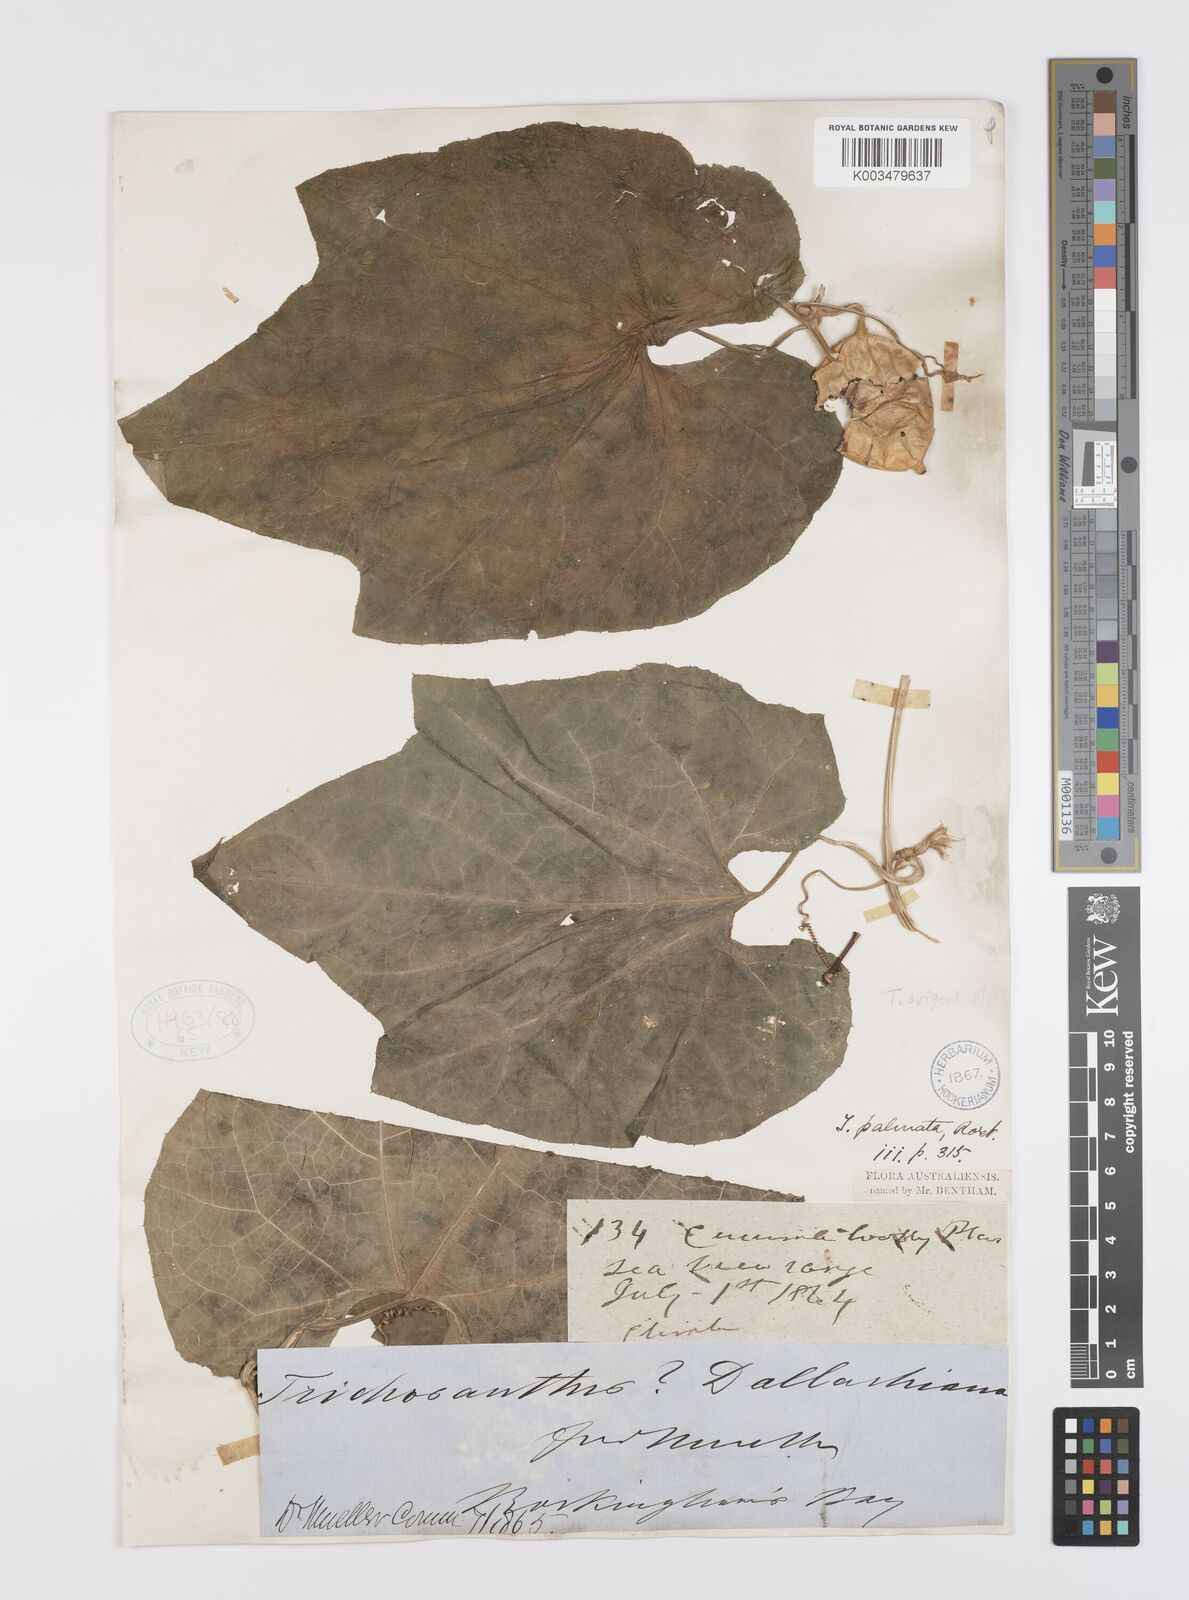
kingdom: Plantae
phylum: Tracheophyta
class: Magnoliopsida
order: Cucurbitales
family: Cucurbitaceae
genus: Trichosanthes
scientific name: Trichosanthes ovigera
